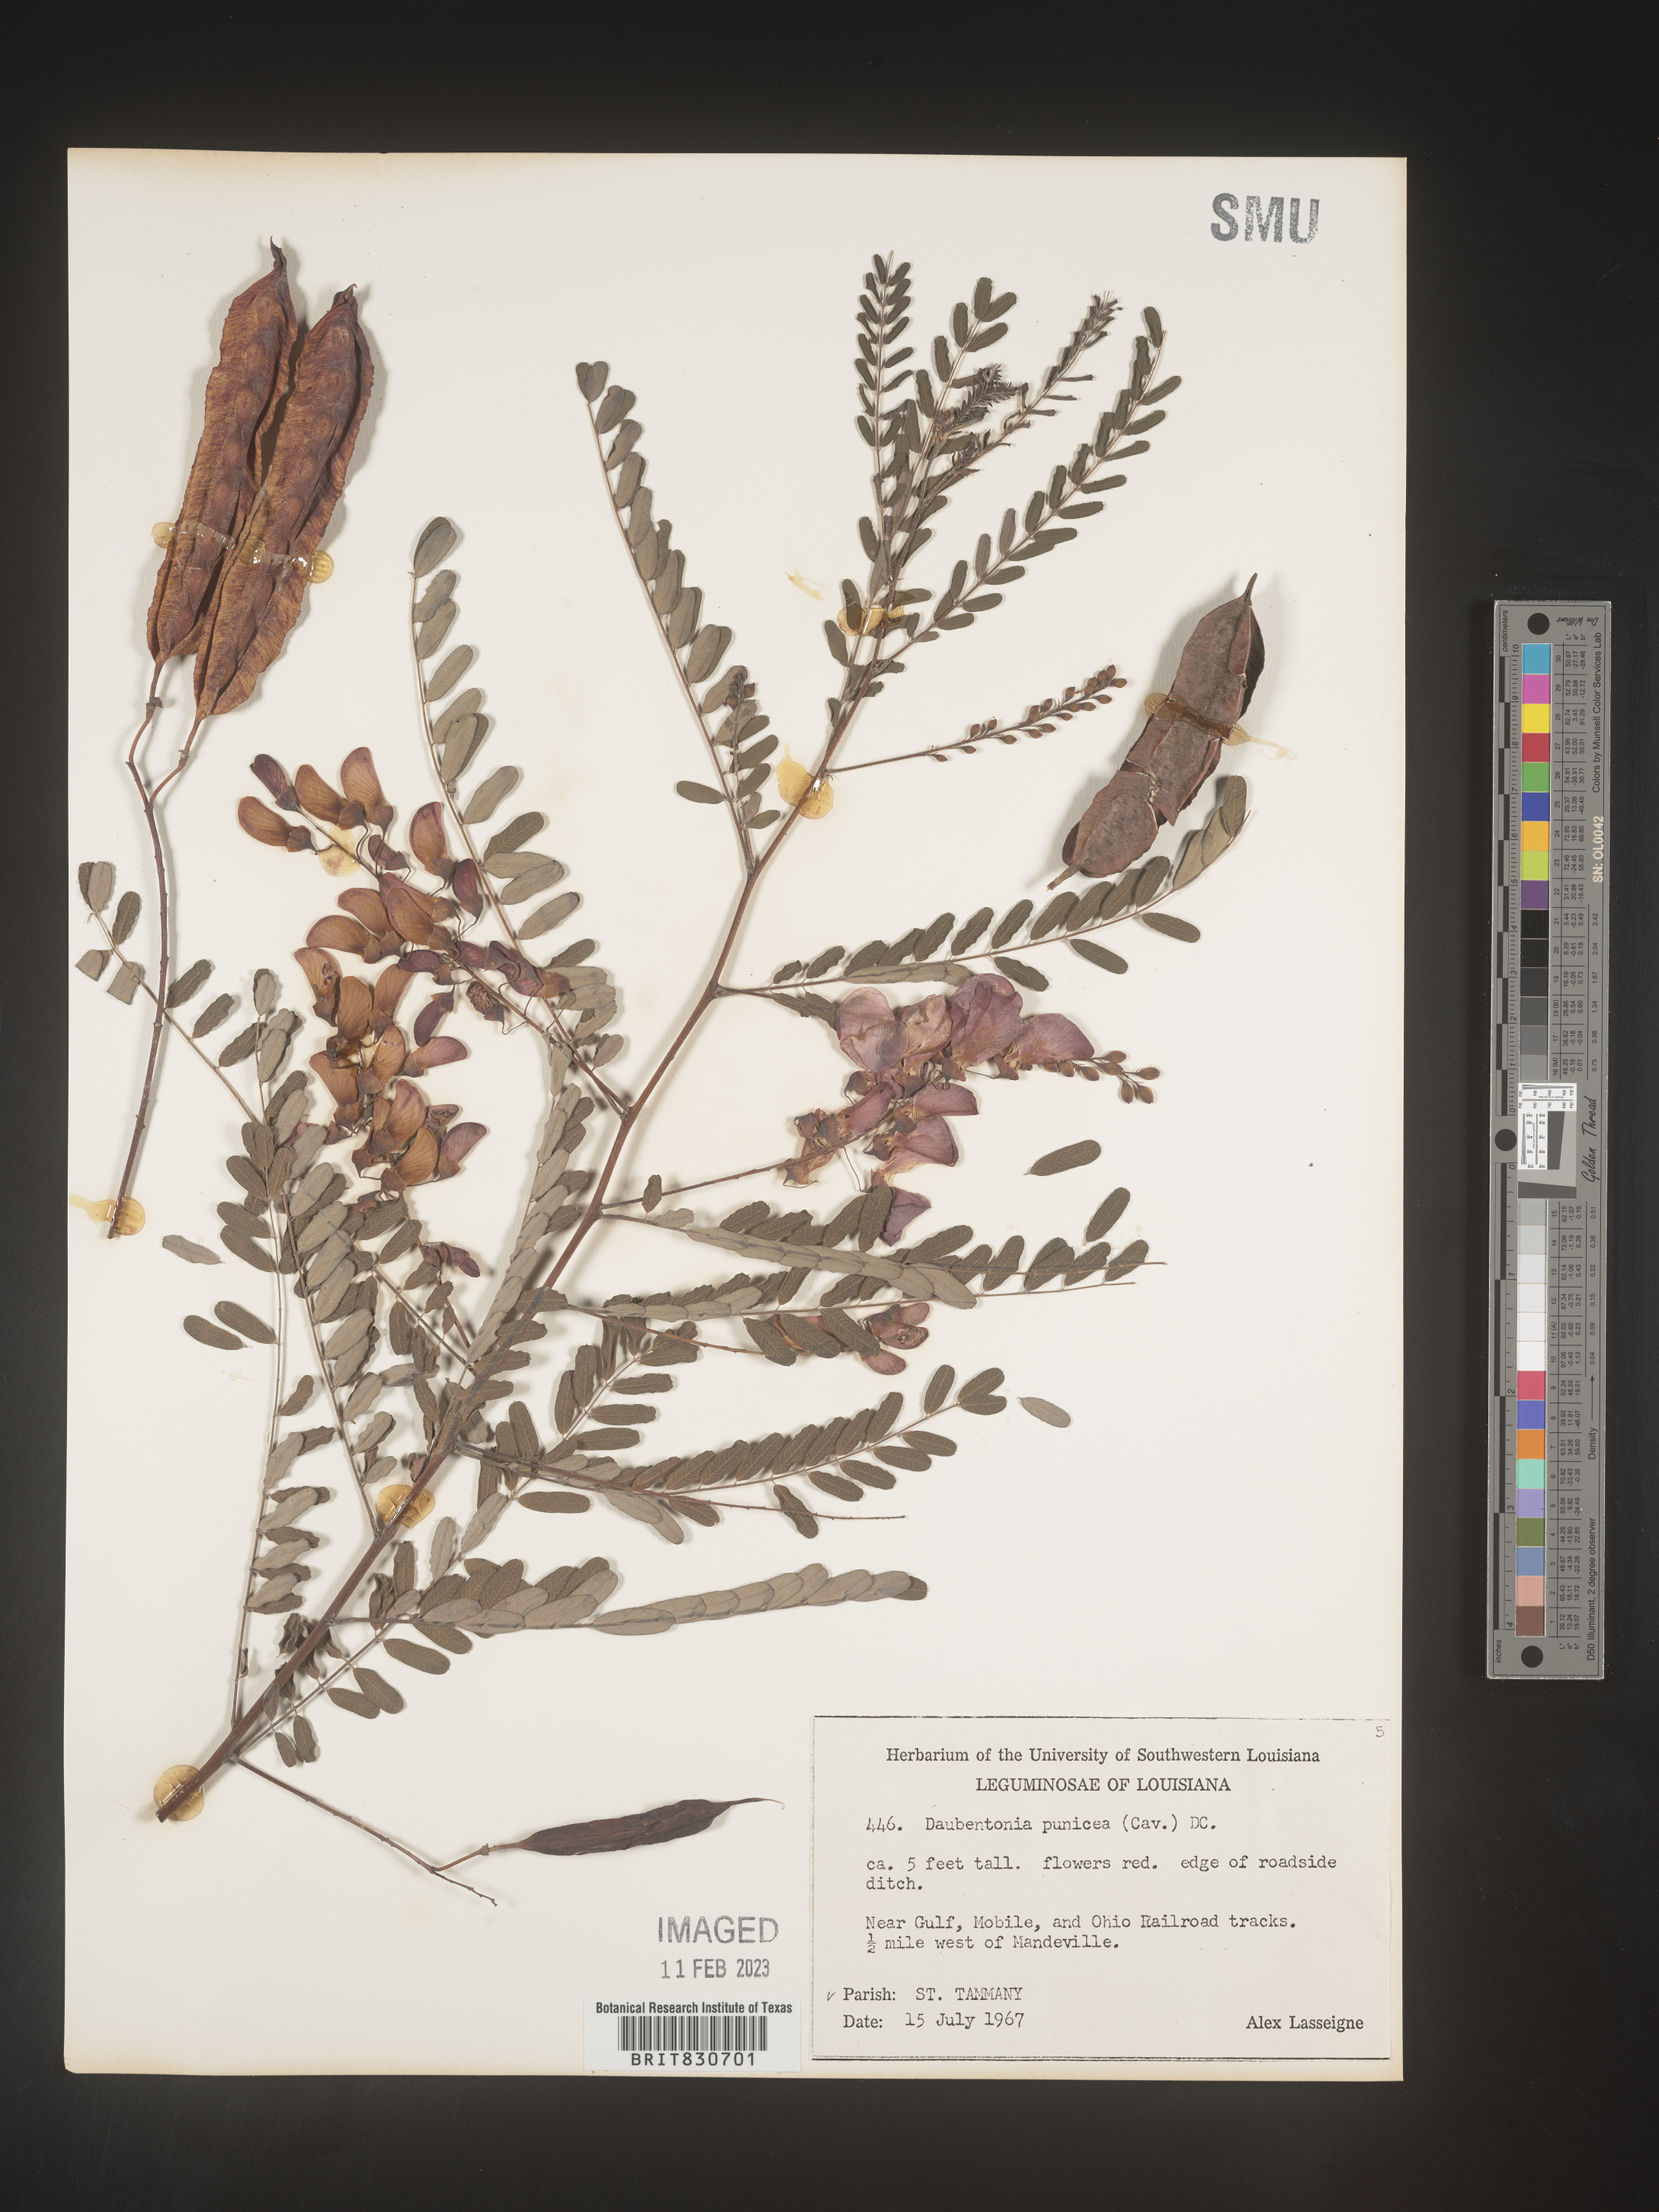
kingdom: Plantae
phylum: Tracheophyta
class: Magnoliopsida
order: Fabales
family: Fabaceae
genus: Sesbania
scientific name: Sesbania punicea
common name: Rattlebox
